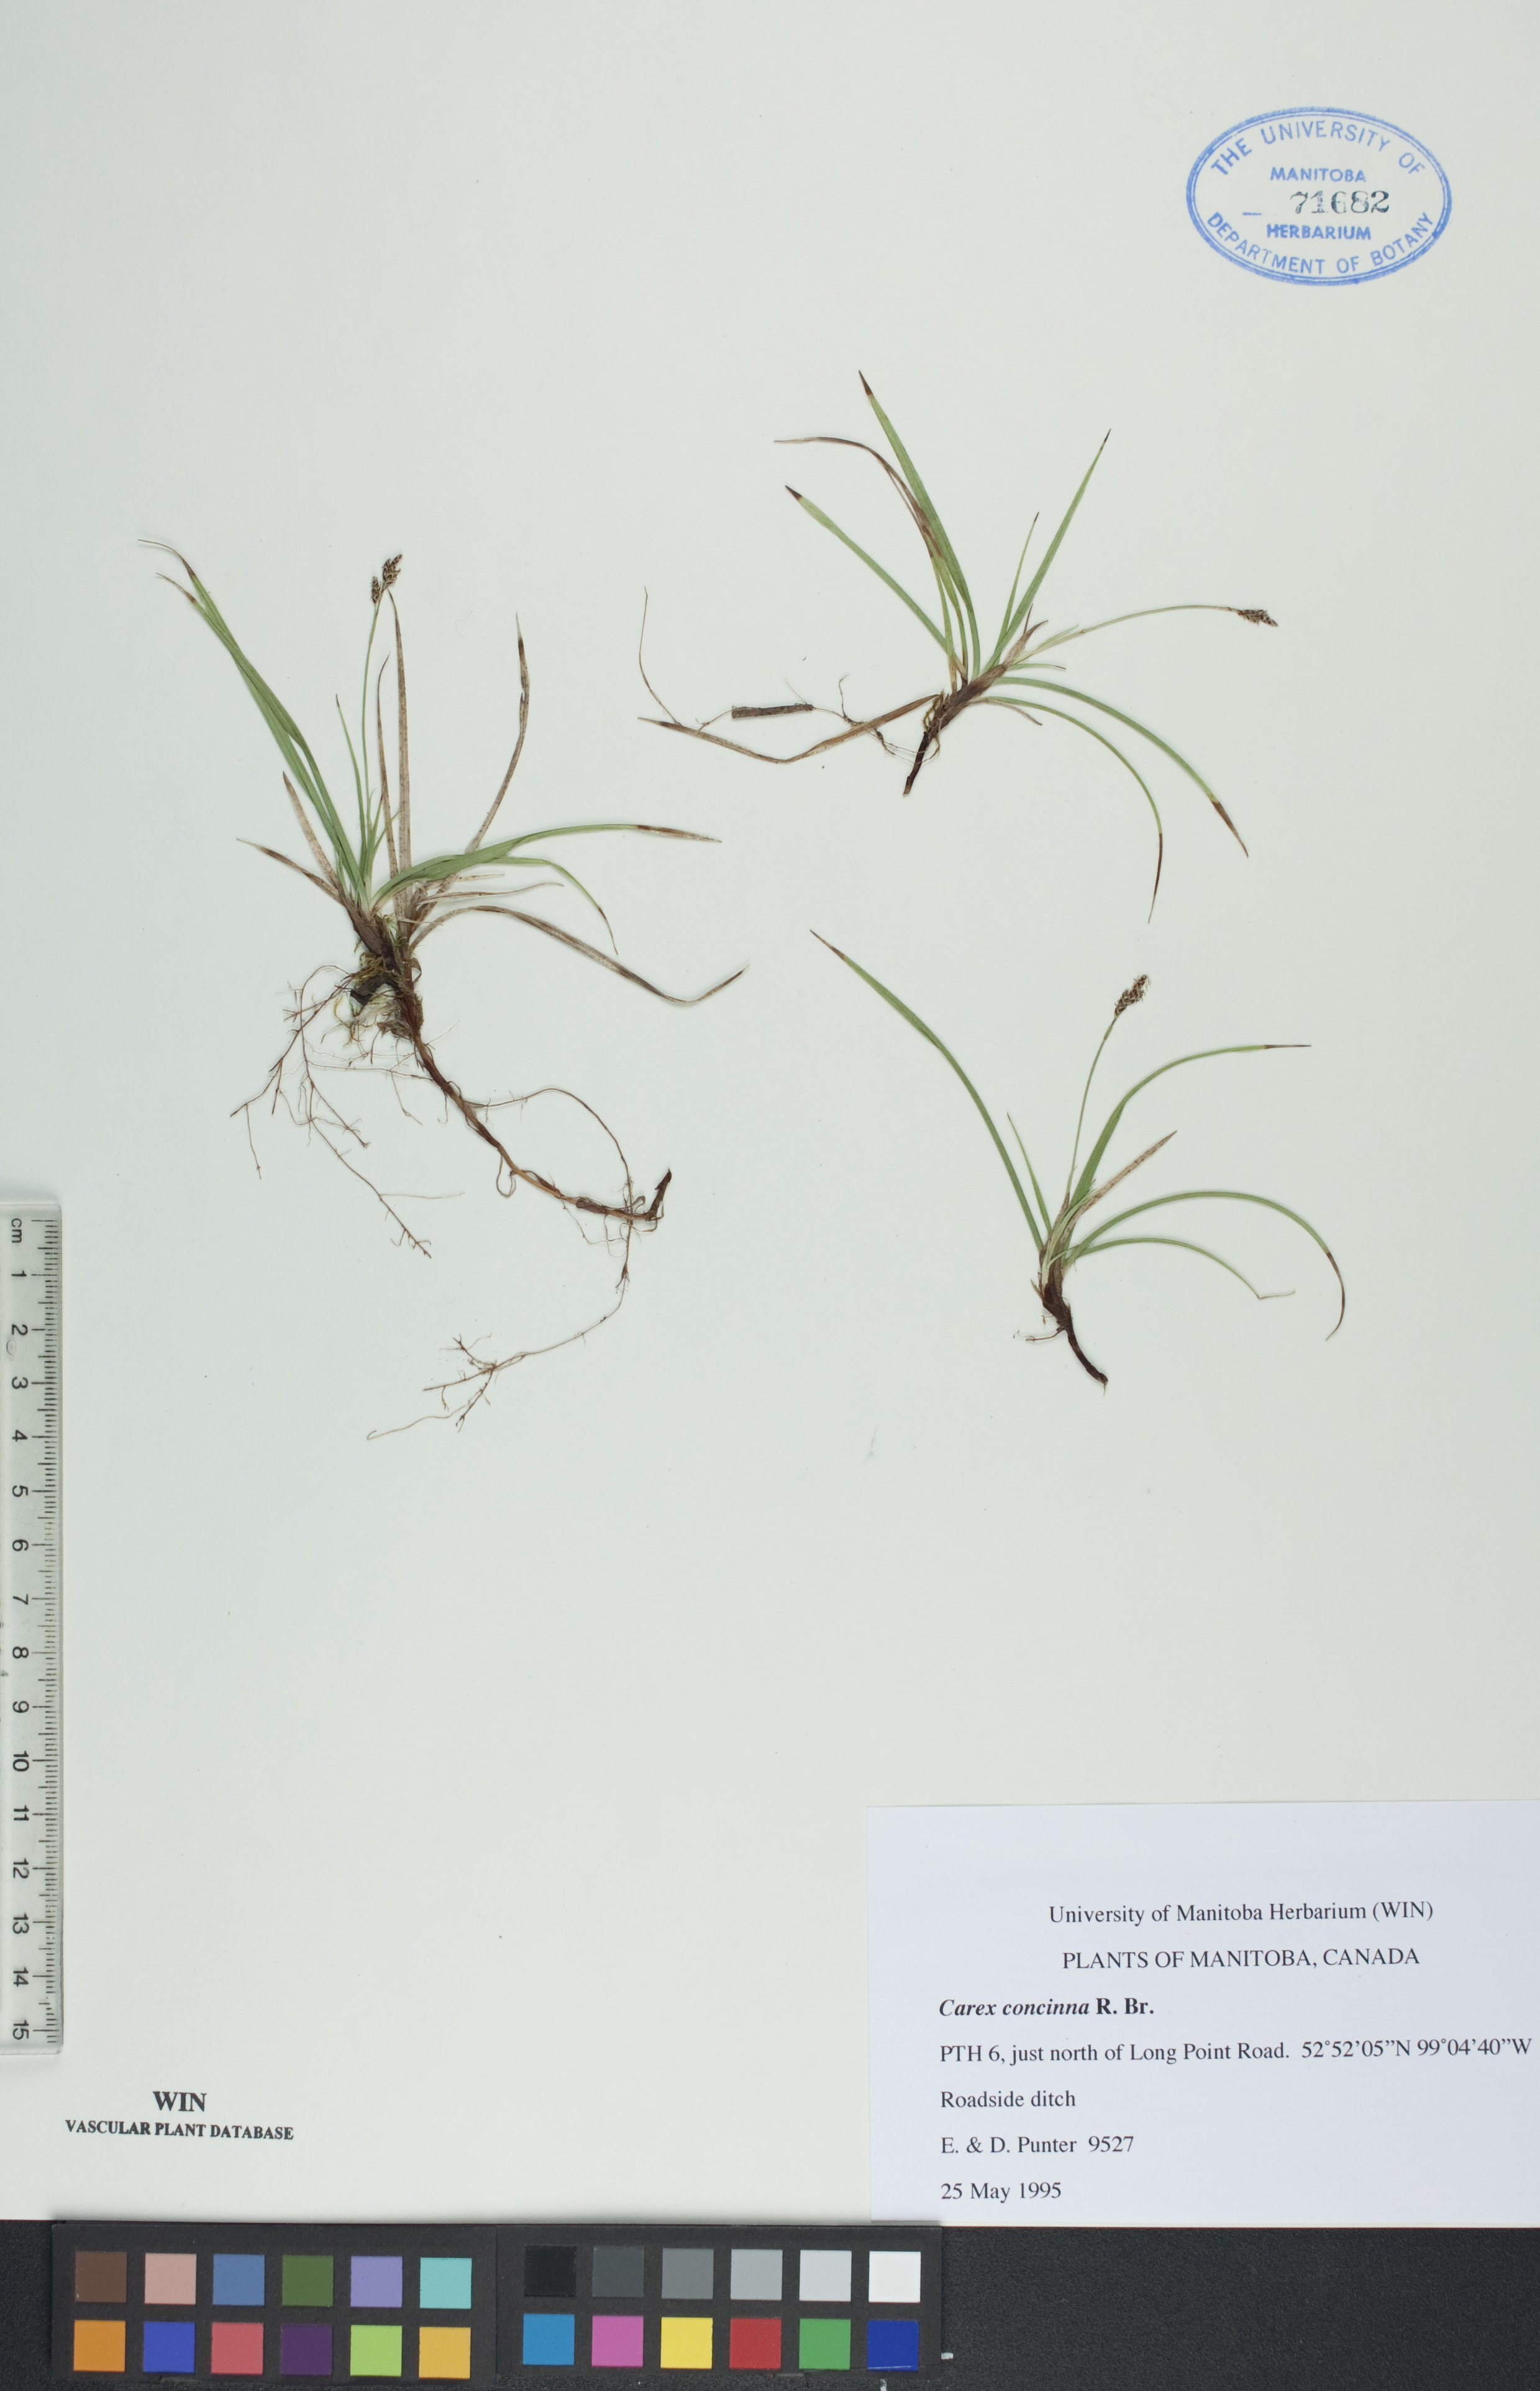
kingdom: Plantae
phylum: Tracheophyta
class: Liliopsida
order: Poales
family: Cyperaceae
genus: Carex
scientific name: Carex concinna
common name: Beautiful sedge
